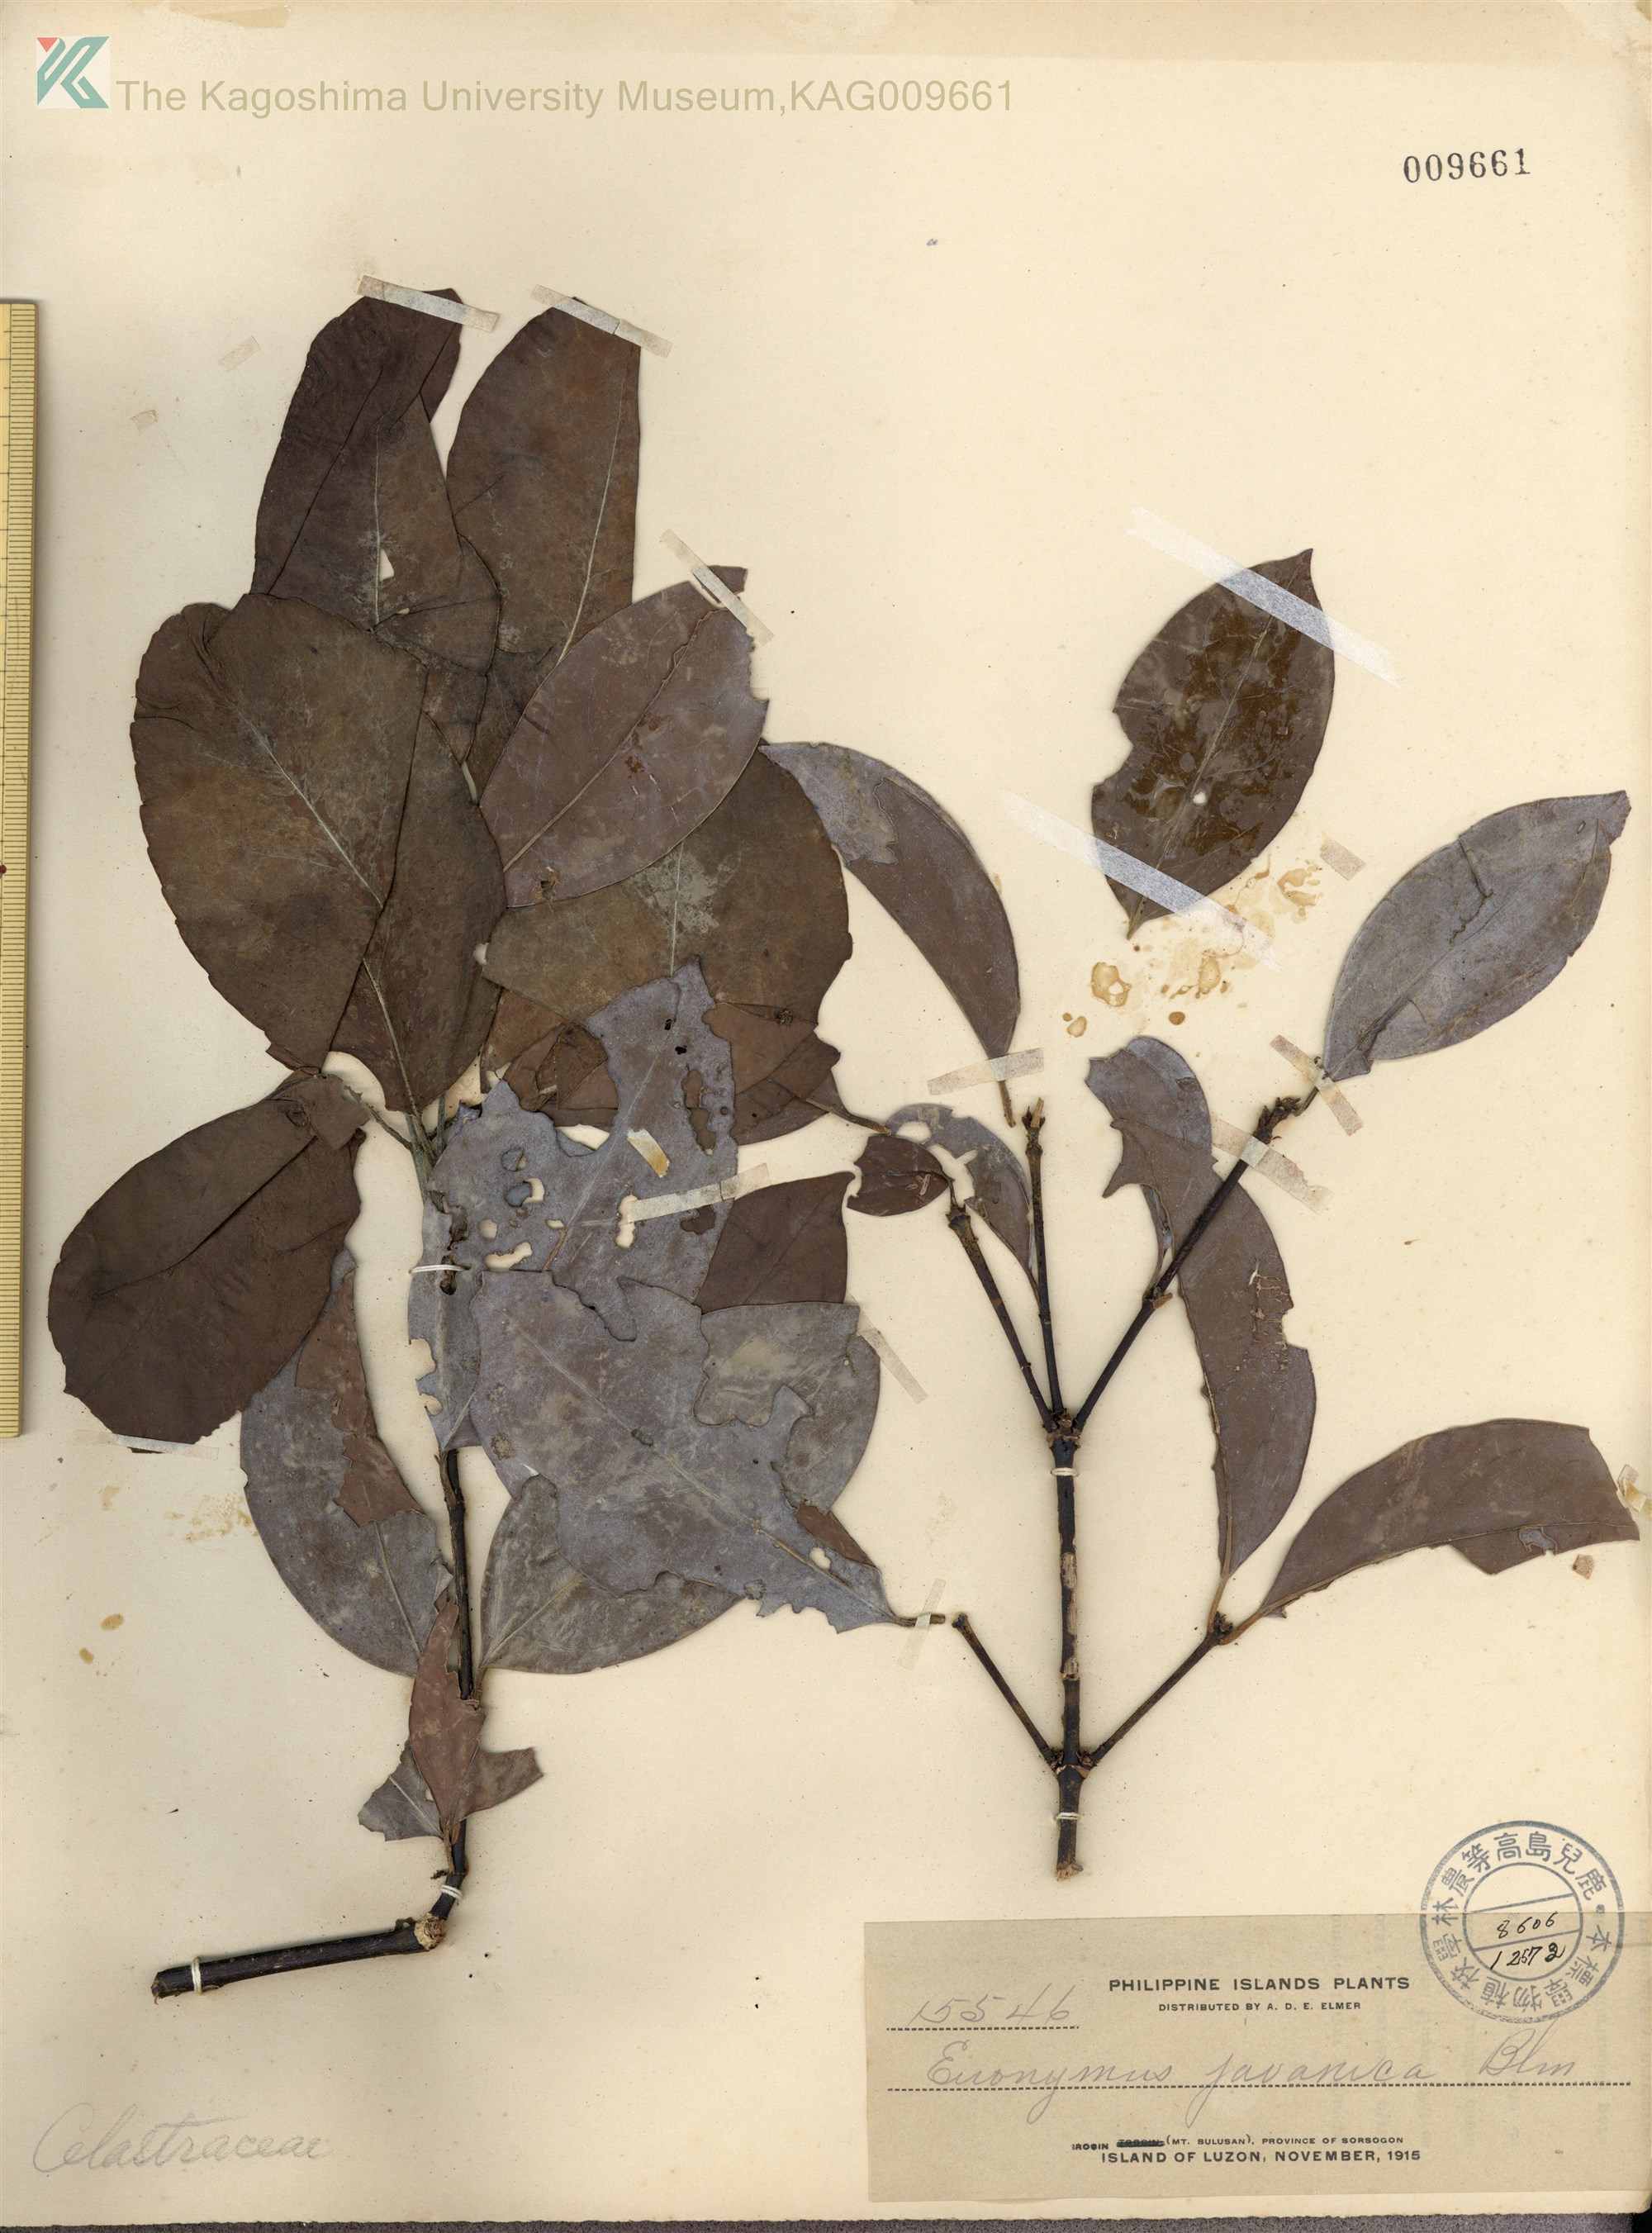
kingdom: Plantae
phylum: Tracheophyta
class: Magnoliopsida
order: Celastrales
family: Celastraceae
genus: Euonymus
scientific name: Euonymus indicus
